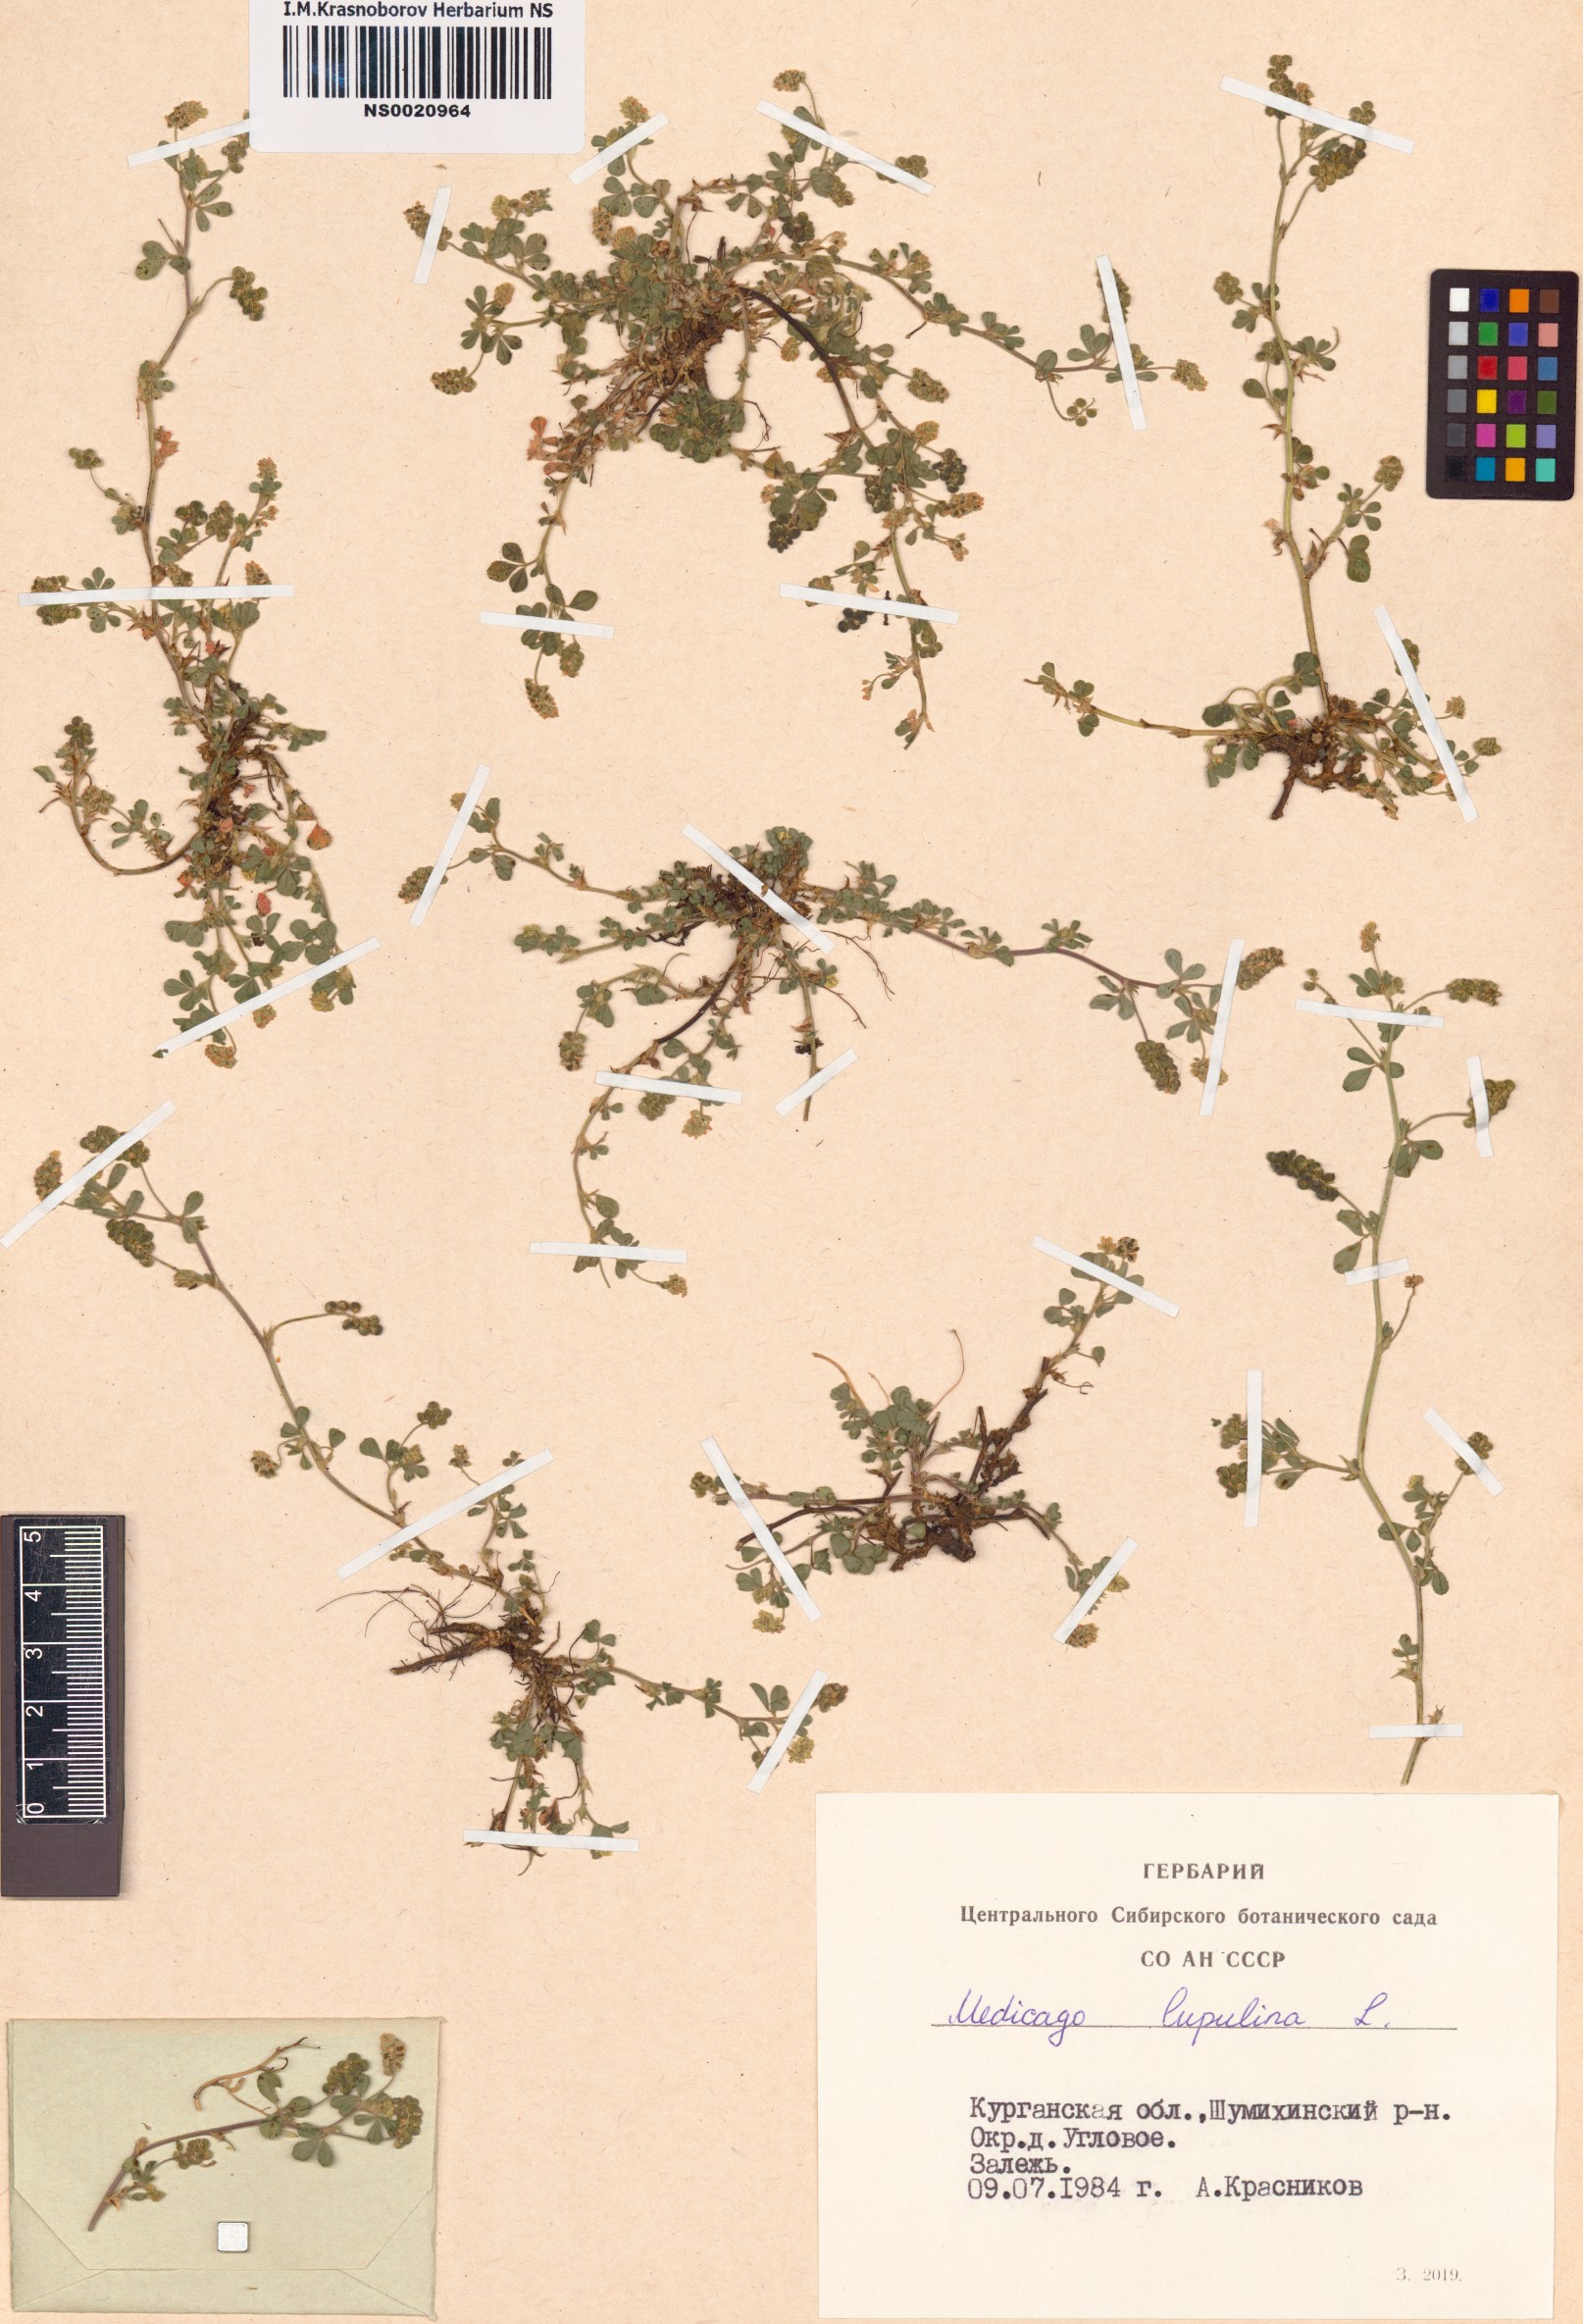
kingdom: Plantae
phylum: Tracheophyta
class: Magnoliopsida
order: Fabales
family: Fabaceae
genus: Medicago
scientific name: Medicago lupulina
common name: Black medick
